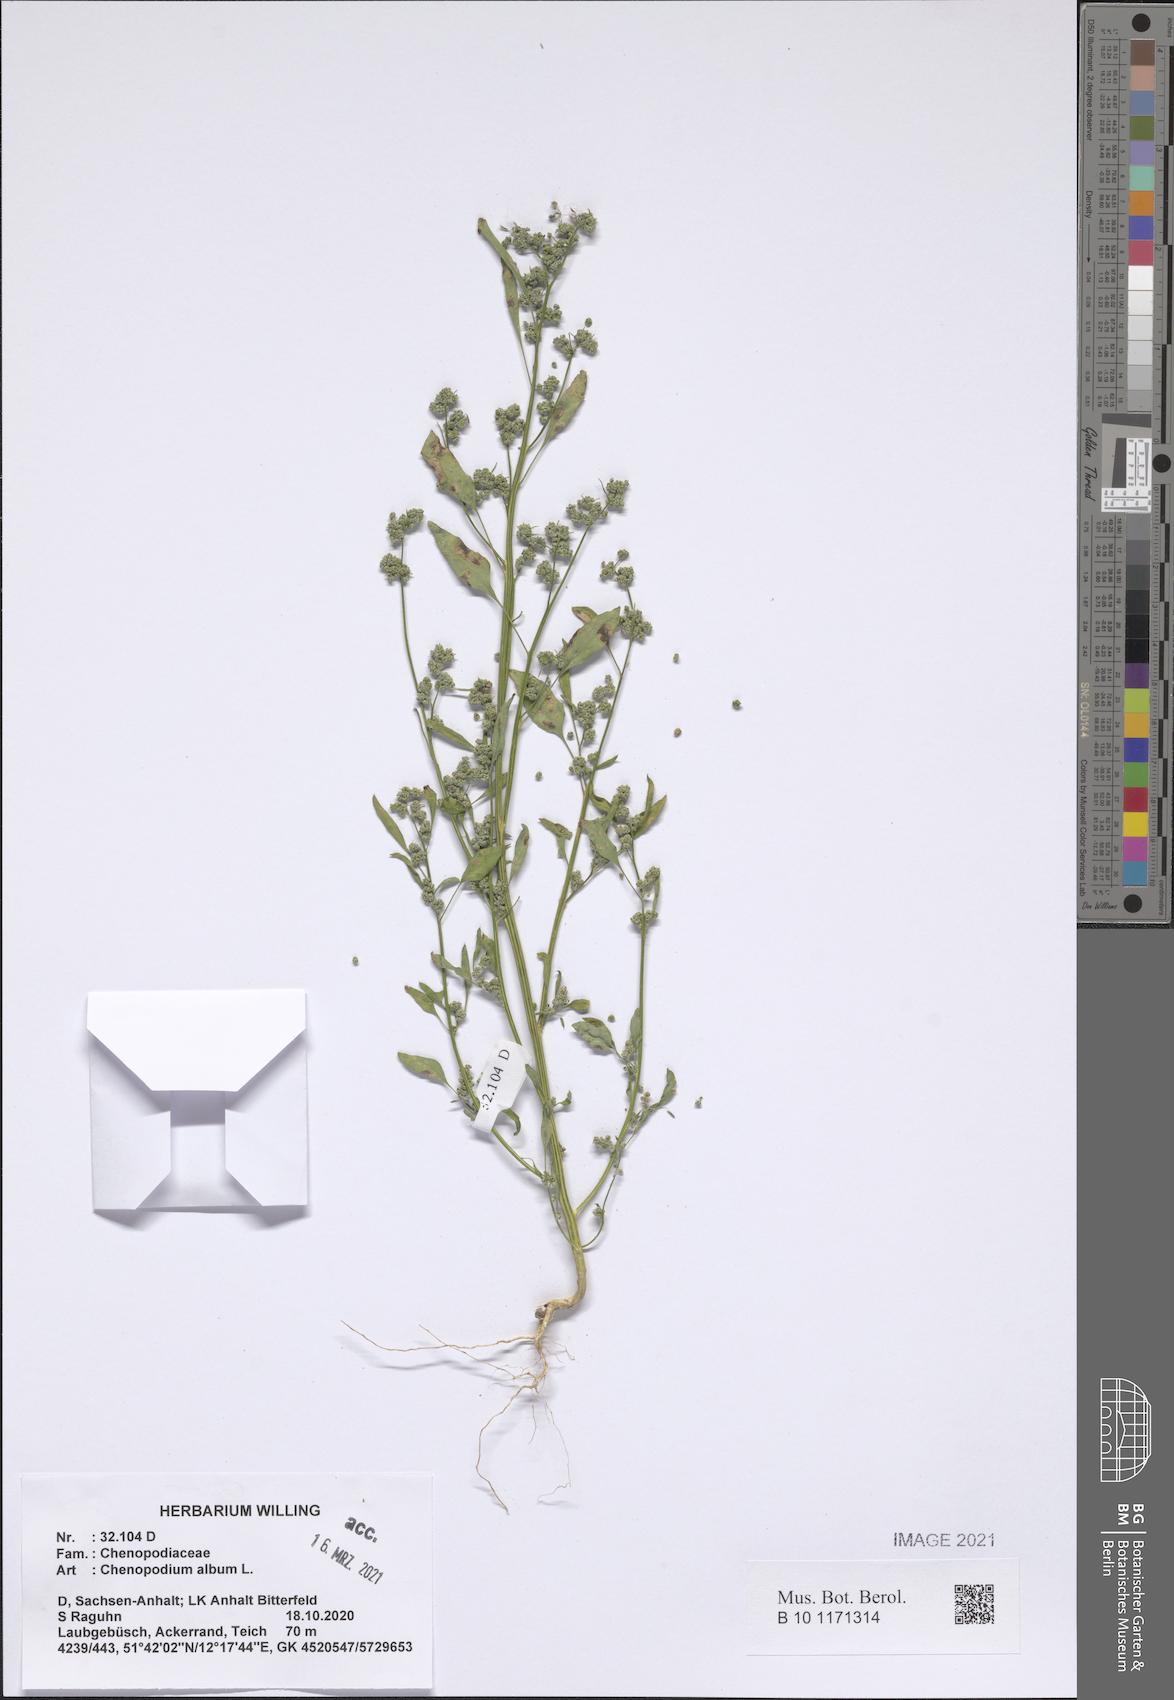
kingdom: Plantae
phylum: Tracheophyta
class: Magnoliopsida
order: Caryophyllales
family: Amaranthaceae
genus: Chenopodium
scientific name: Chenopodium album
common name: Fat-hen
